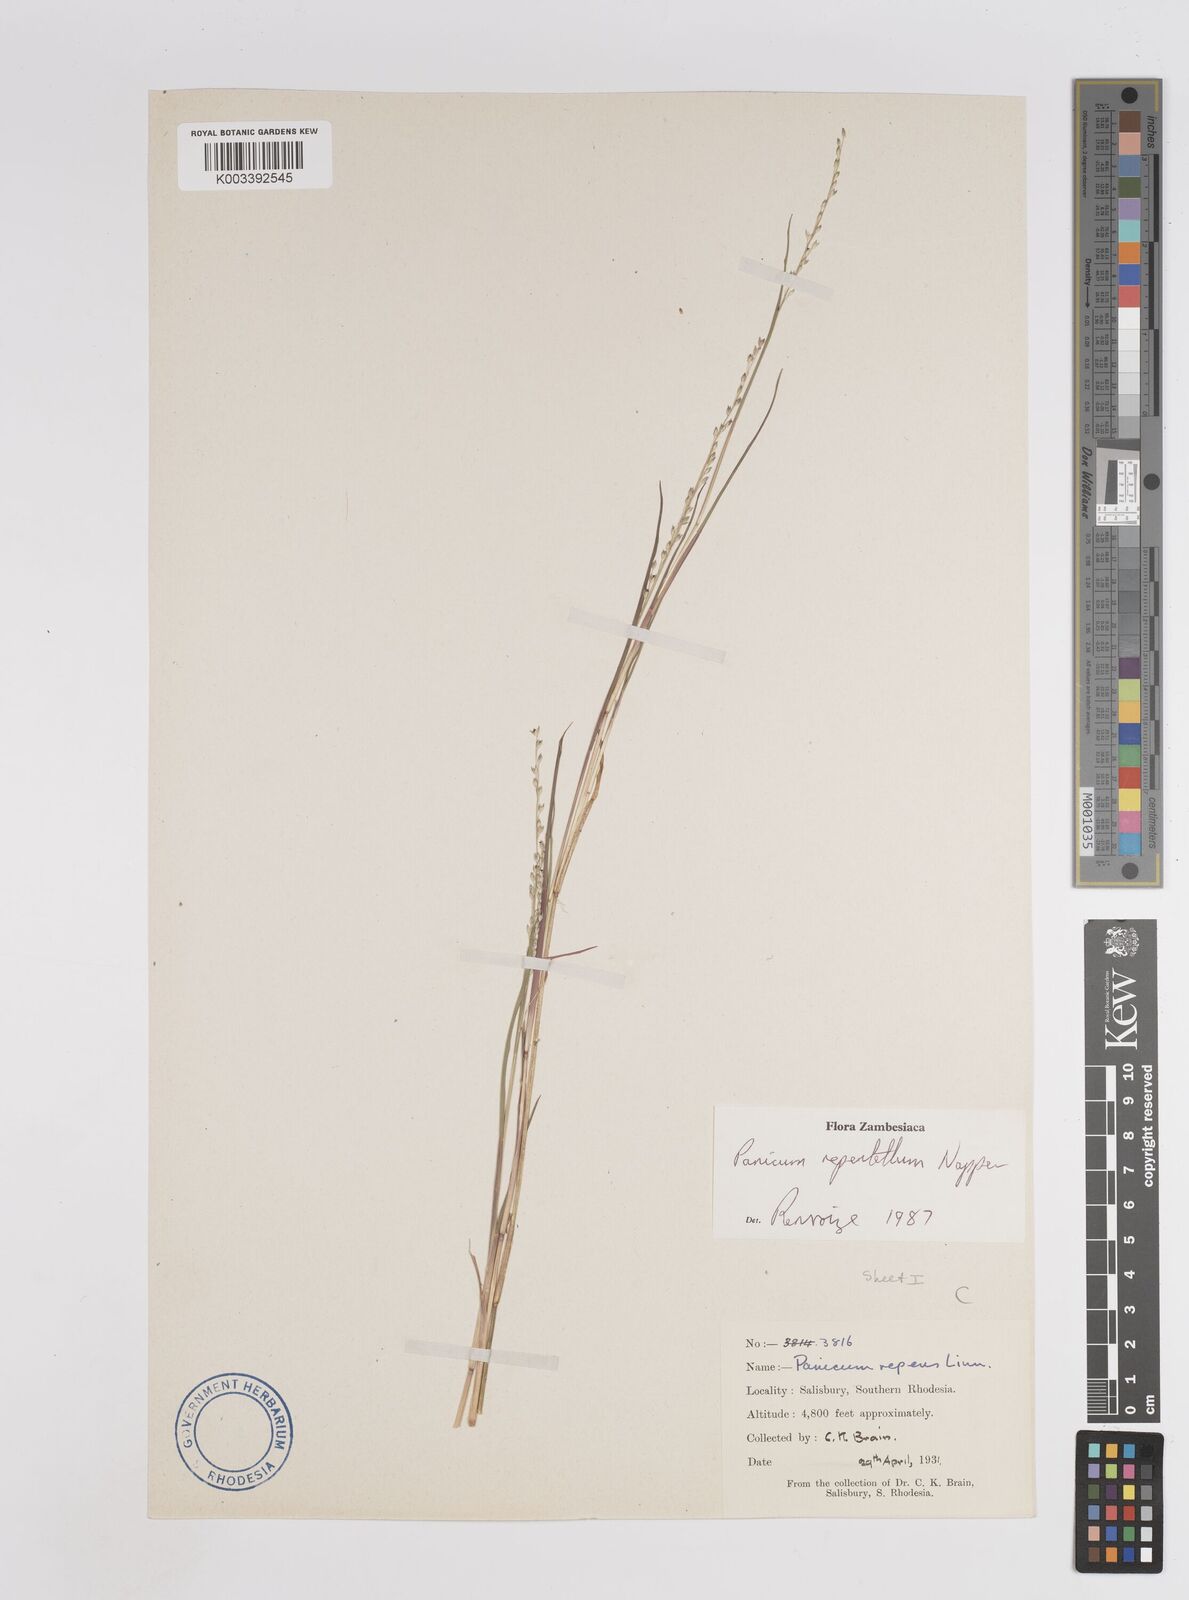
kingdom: Plantae
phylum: Tracheophyta
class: Liliopsida
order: Poales
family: Poaceae
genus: Panicum
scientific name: Panicum hygrocharis
